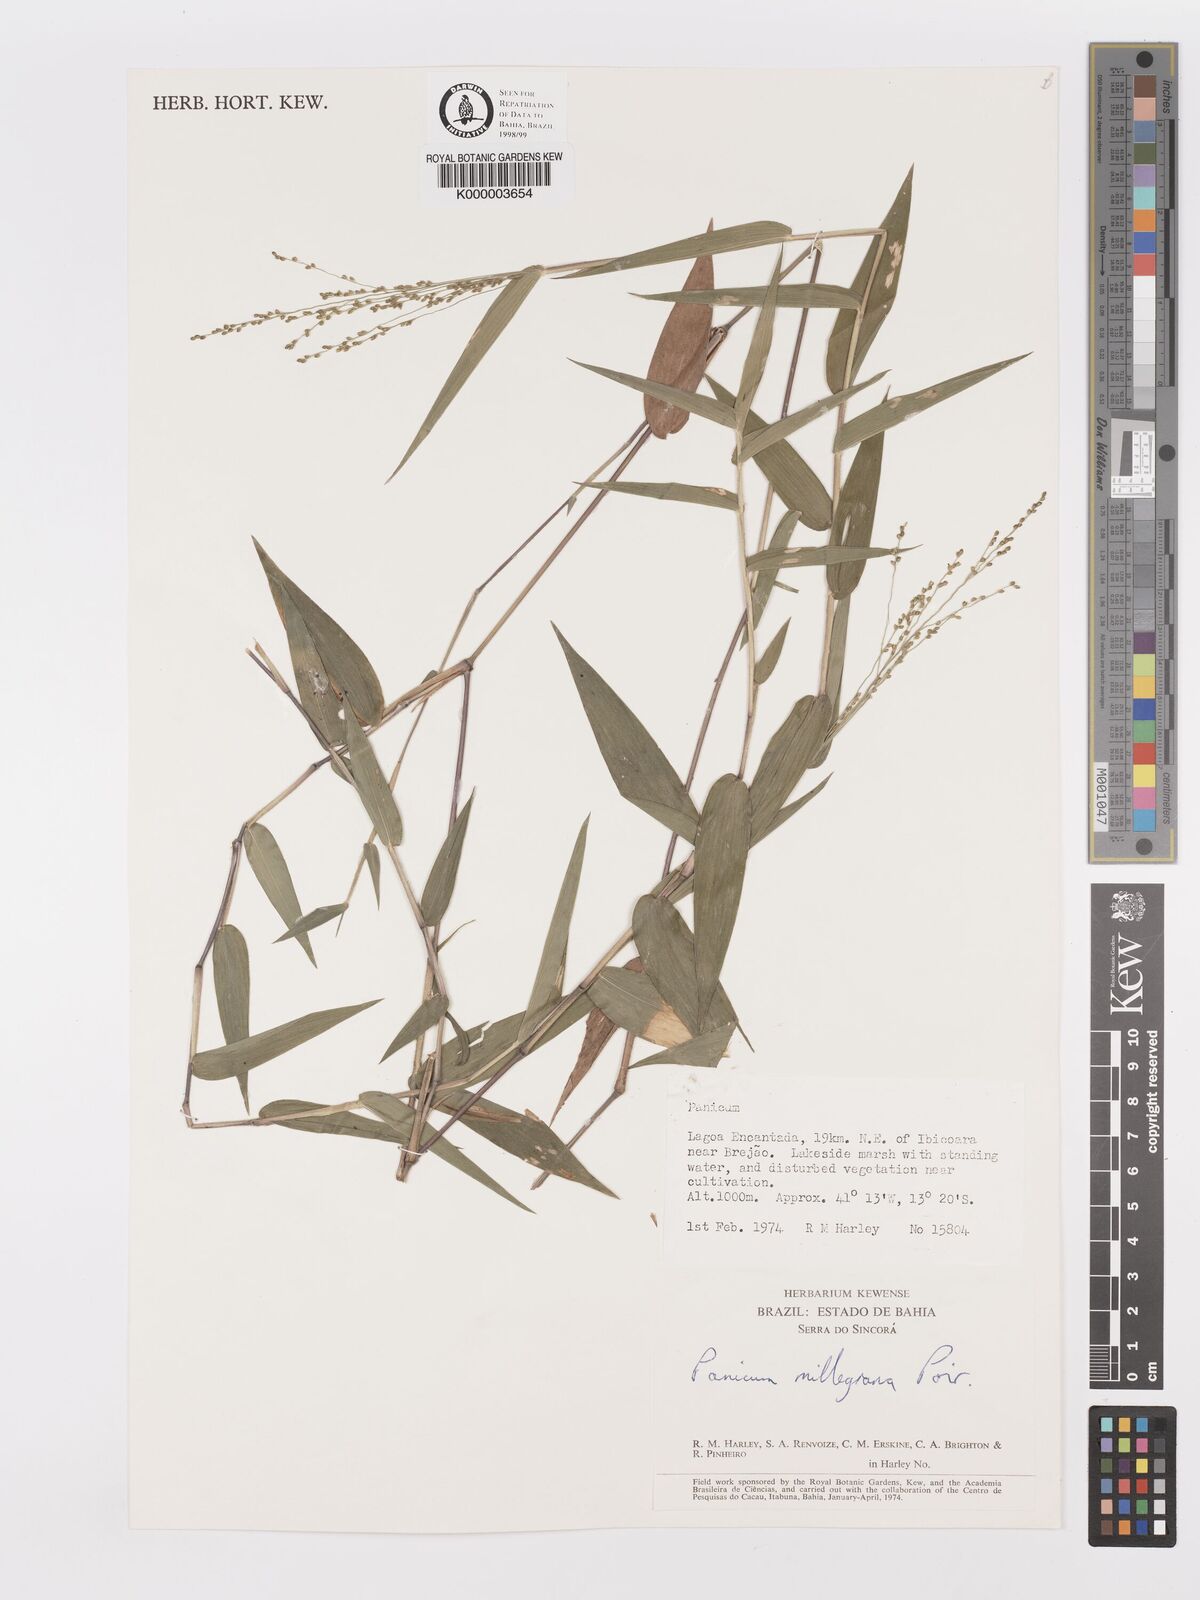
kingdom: Plantae
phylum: Tracheophyta
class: Liliopsida
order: Poales
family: Poaceae
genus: Panicum
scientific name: Panicum sellowii
